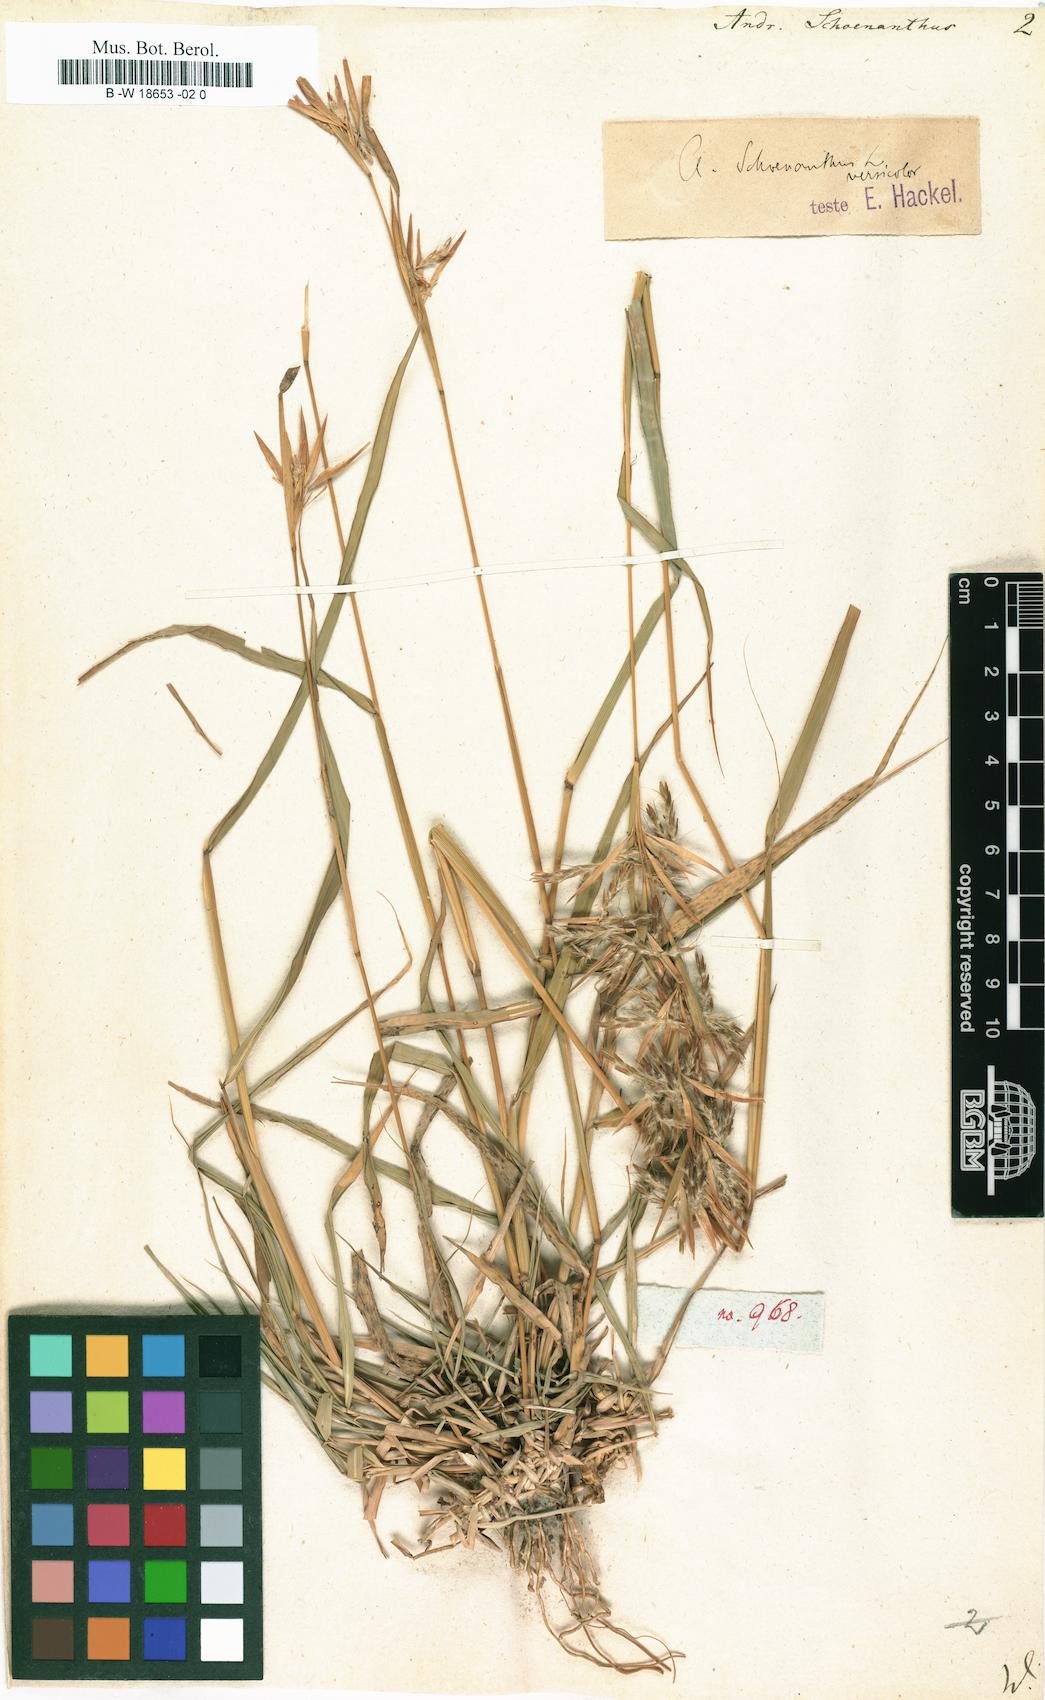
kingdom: Plantae
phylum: Tracheophyta
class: Liliopsida
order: Poales
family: Poaceae
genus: Cymbopogon
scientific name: Cymbopogon schoenanthus
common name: Geranium grass
